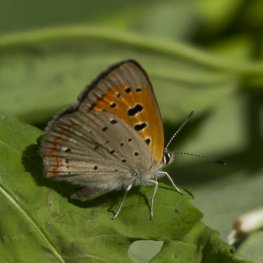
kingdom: Animalia
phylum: Arthropoda
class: Insecta
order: Lepidoptera
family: Lycaenidae
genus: Lycaena
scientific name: Lycaena phlaeas
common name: American Copper
